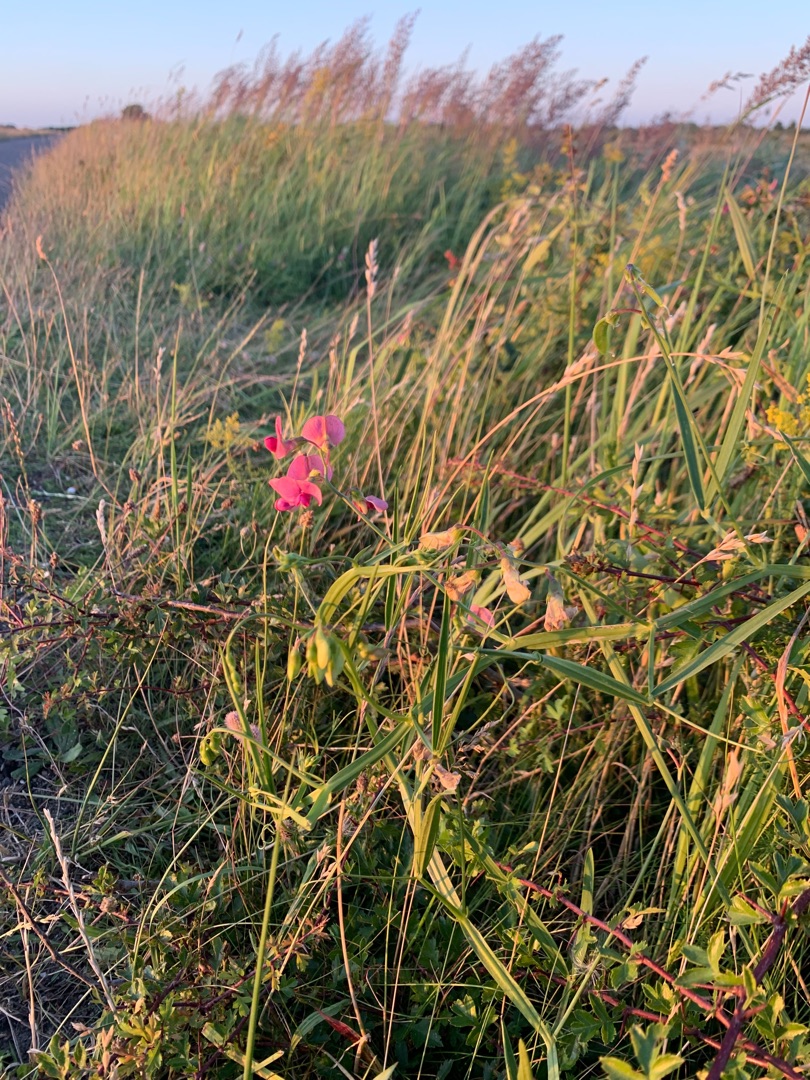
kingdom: Plantae
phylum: Tracheophyta
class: Magnoliopsida
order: Fabales
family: Fabaceae
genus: Lathyrus
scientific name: Lathyrus sylvestris
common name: Skov-fladbælg
